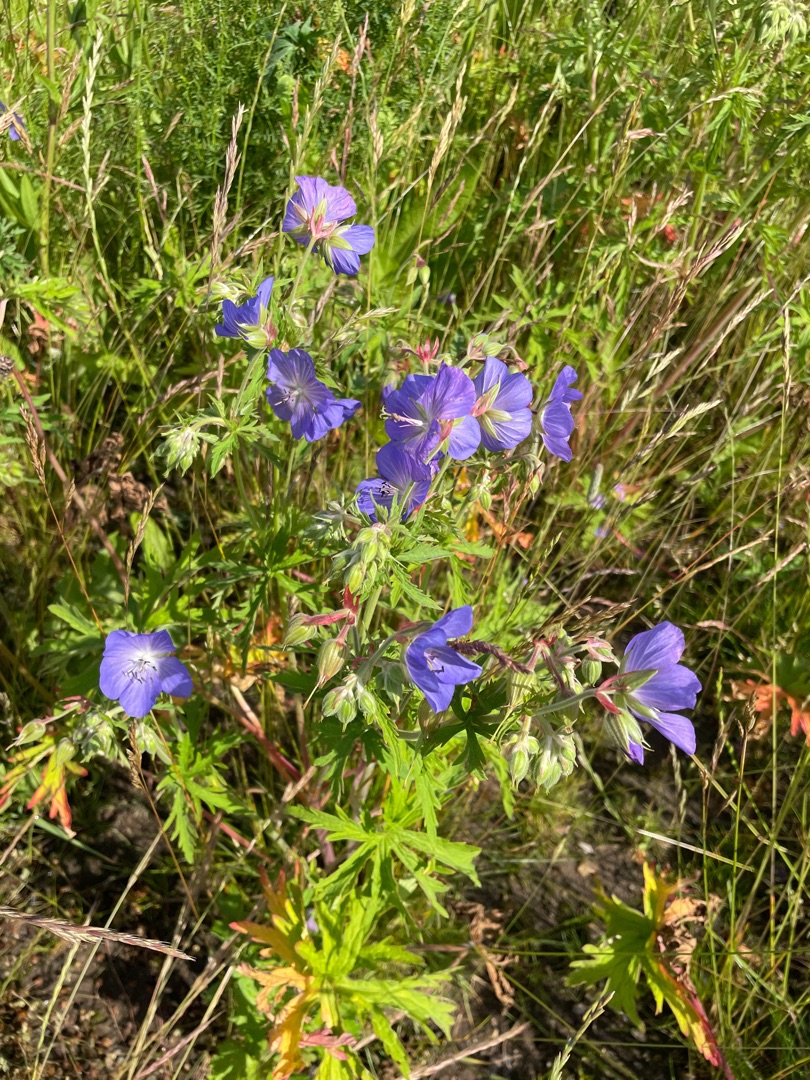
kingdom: Plantae
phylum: Tracheophyta
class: Magnoliopsida
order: Geraniales
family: Geraniaceae
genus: Geranium
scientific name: Geranium pratense
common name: Eng-storkenæb
